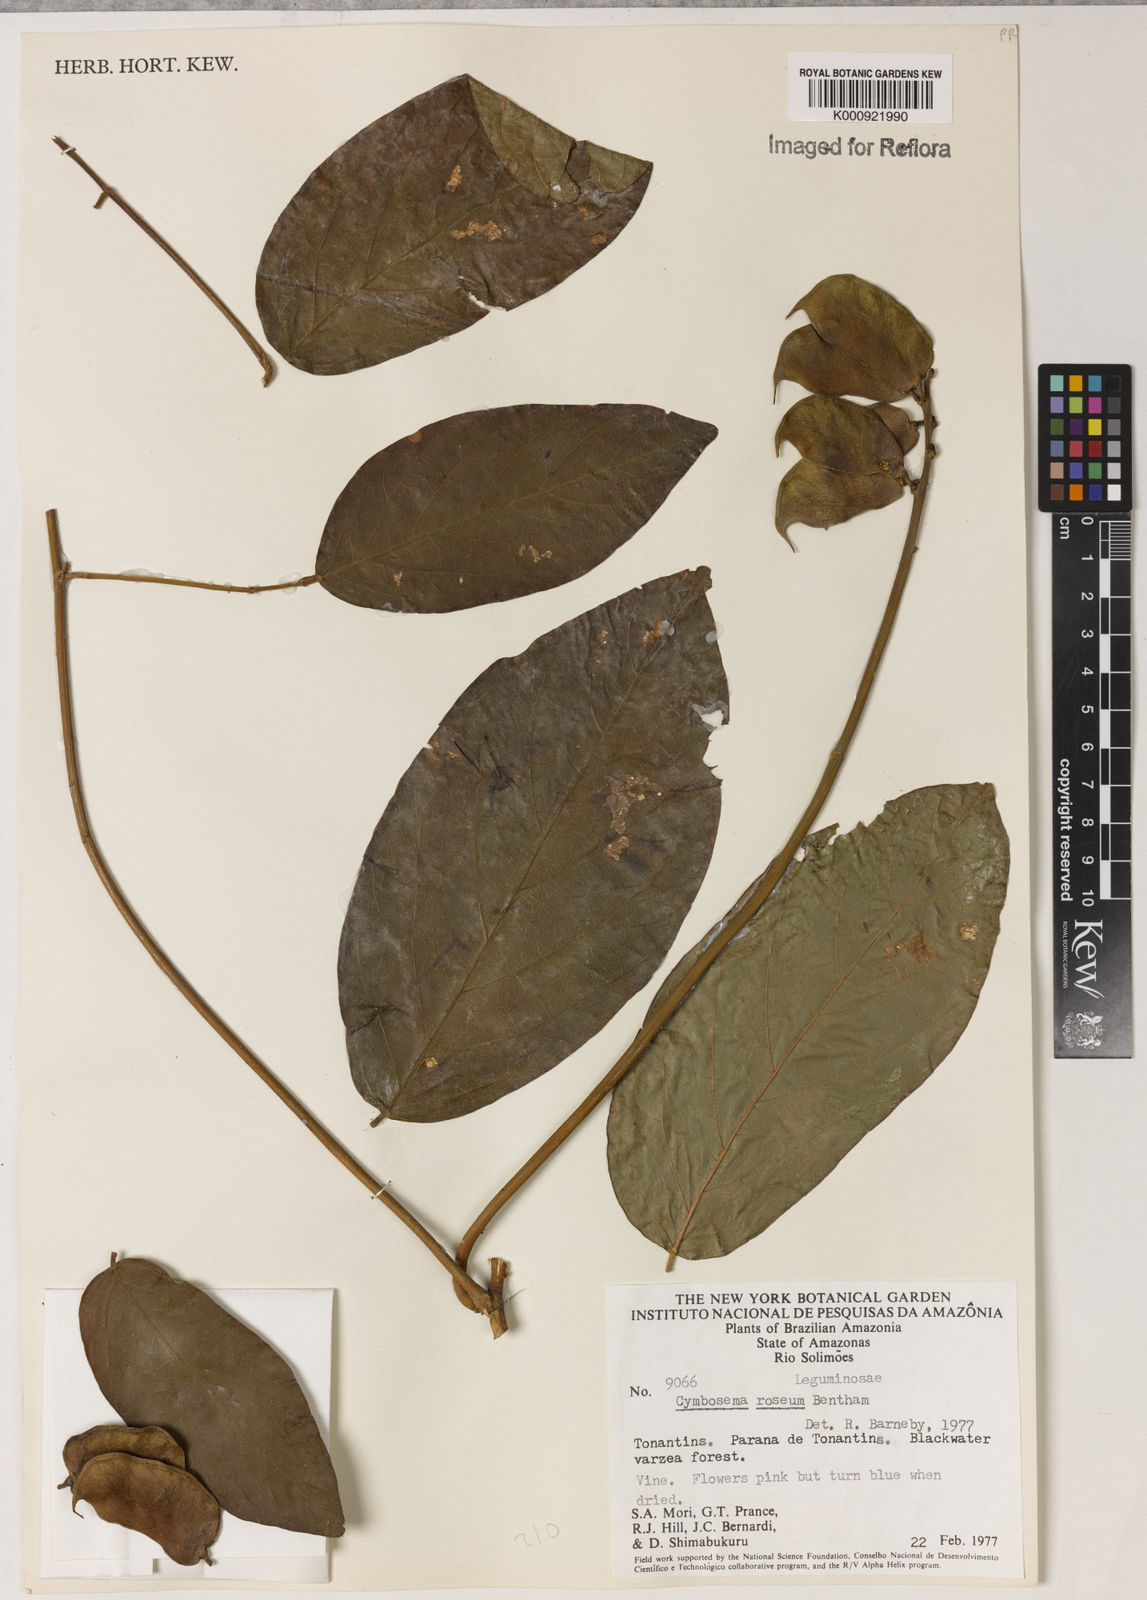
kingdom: Plantae
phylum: Tracheophyta
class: Magnoliopsida
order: Fabales
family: Fabaceae
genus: Cymbosema
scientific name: Cymbosema roseum
